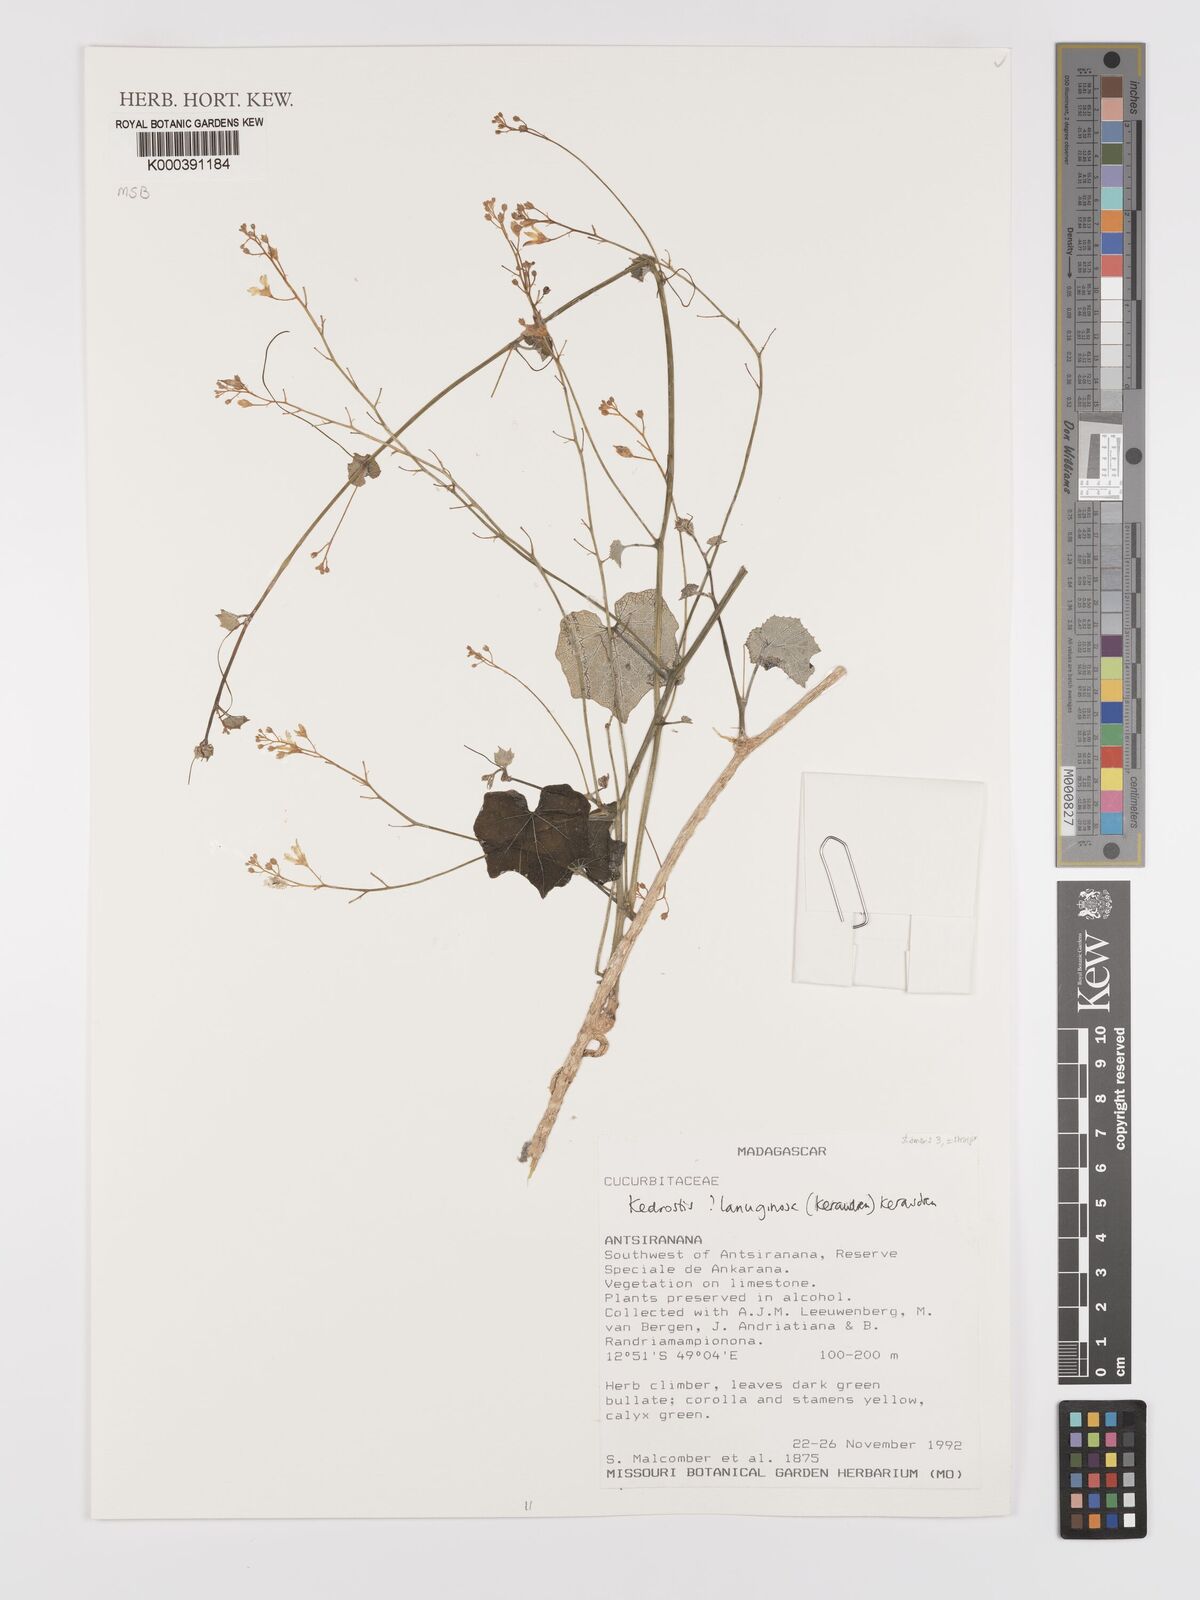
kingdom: Plantae
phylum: Tracheophyta
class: Magnoliopsida
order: Cucurbitales
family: Cucurbitaceae
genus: Kedrostis
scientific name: Kedrostis lanuginosa
